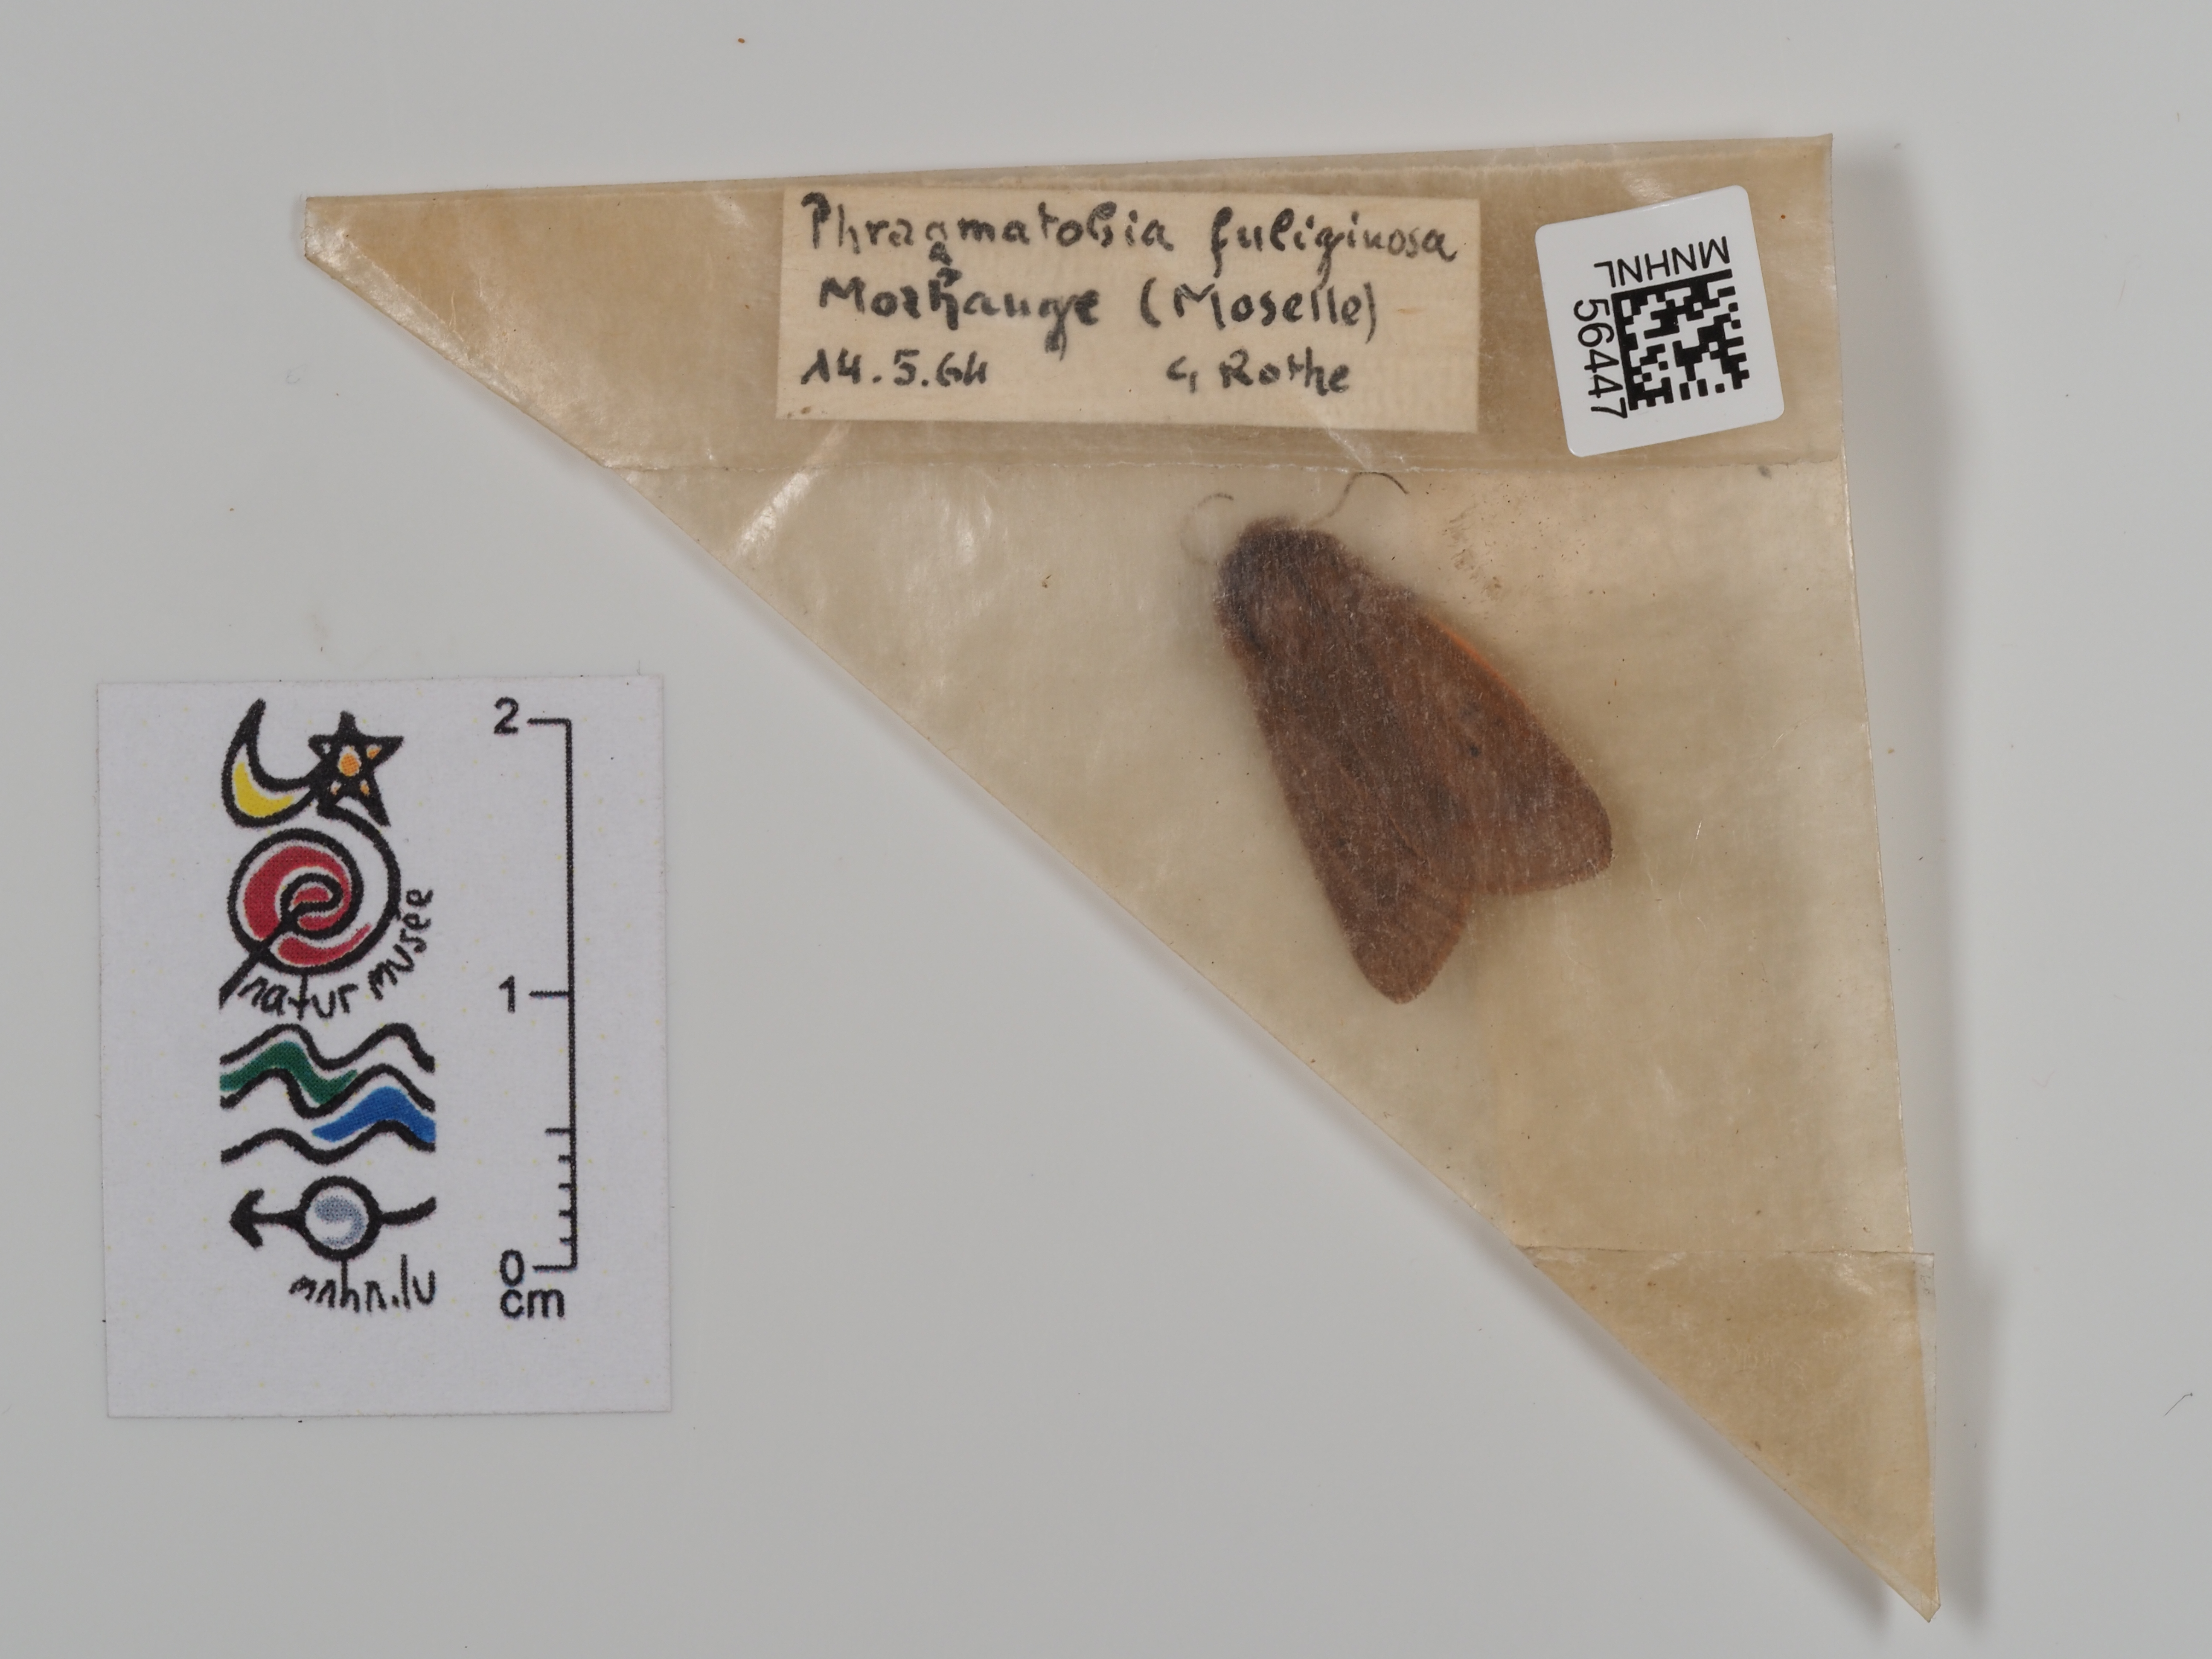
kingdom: Animalia
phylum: Arthropoda
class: Insecta
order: Lepidoptera
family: Erebidae
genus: Phragmatobia
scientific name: Phragmatobia fuliginosa
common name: Ruby tiger
